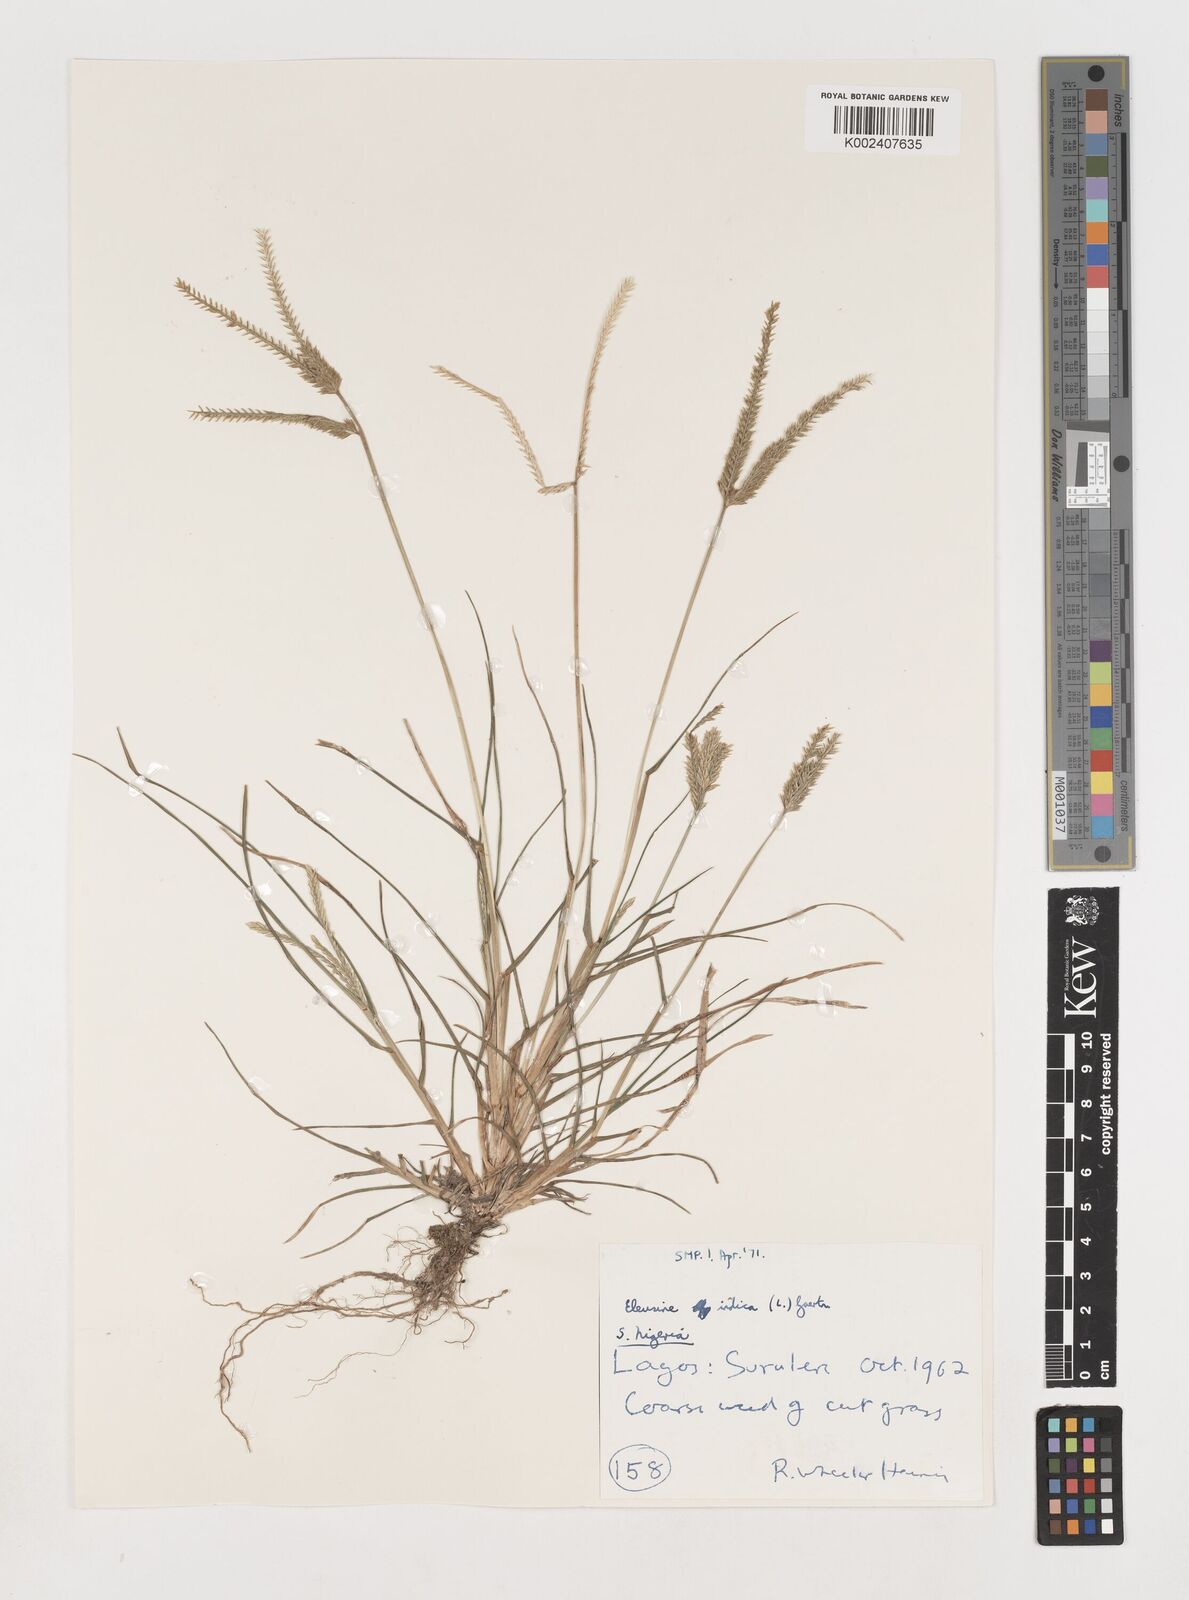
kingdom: Plantae
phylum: Tracheophyta
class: Liliopsida
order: Poales
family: Poaceae
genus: Eleusine
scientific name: Eleusine indica
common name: Yard-grass
